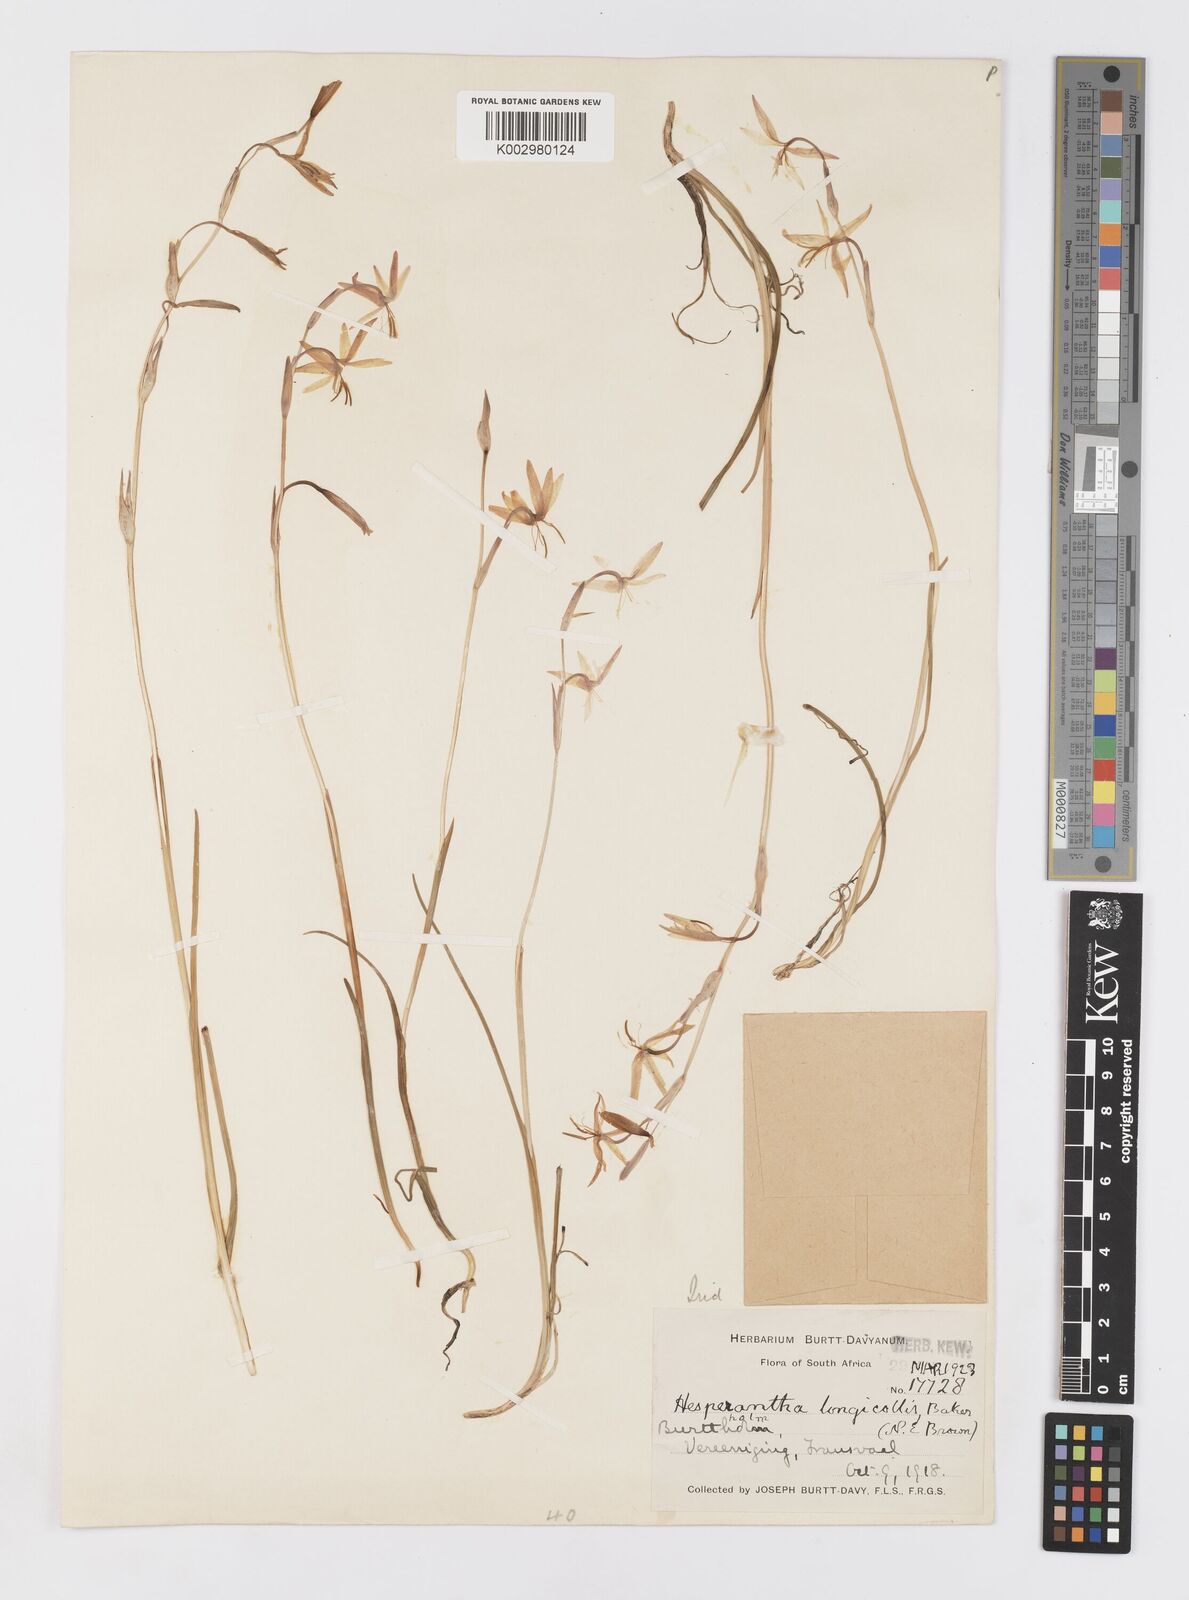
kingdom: Plantae
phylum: Tracheophyta
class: Liliopsida
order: Asparagales
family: Iridaceae
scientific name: Iridaceae
